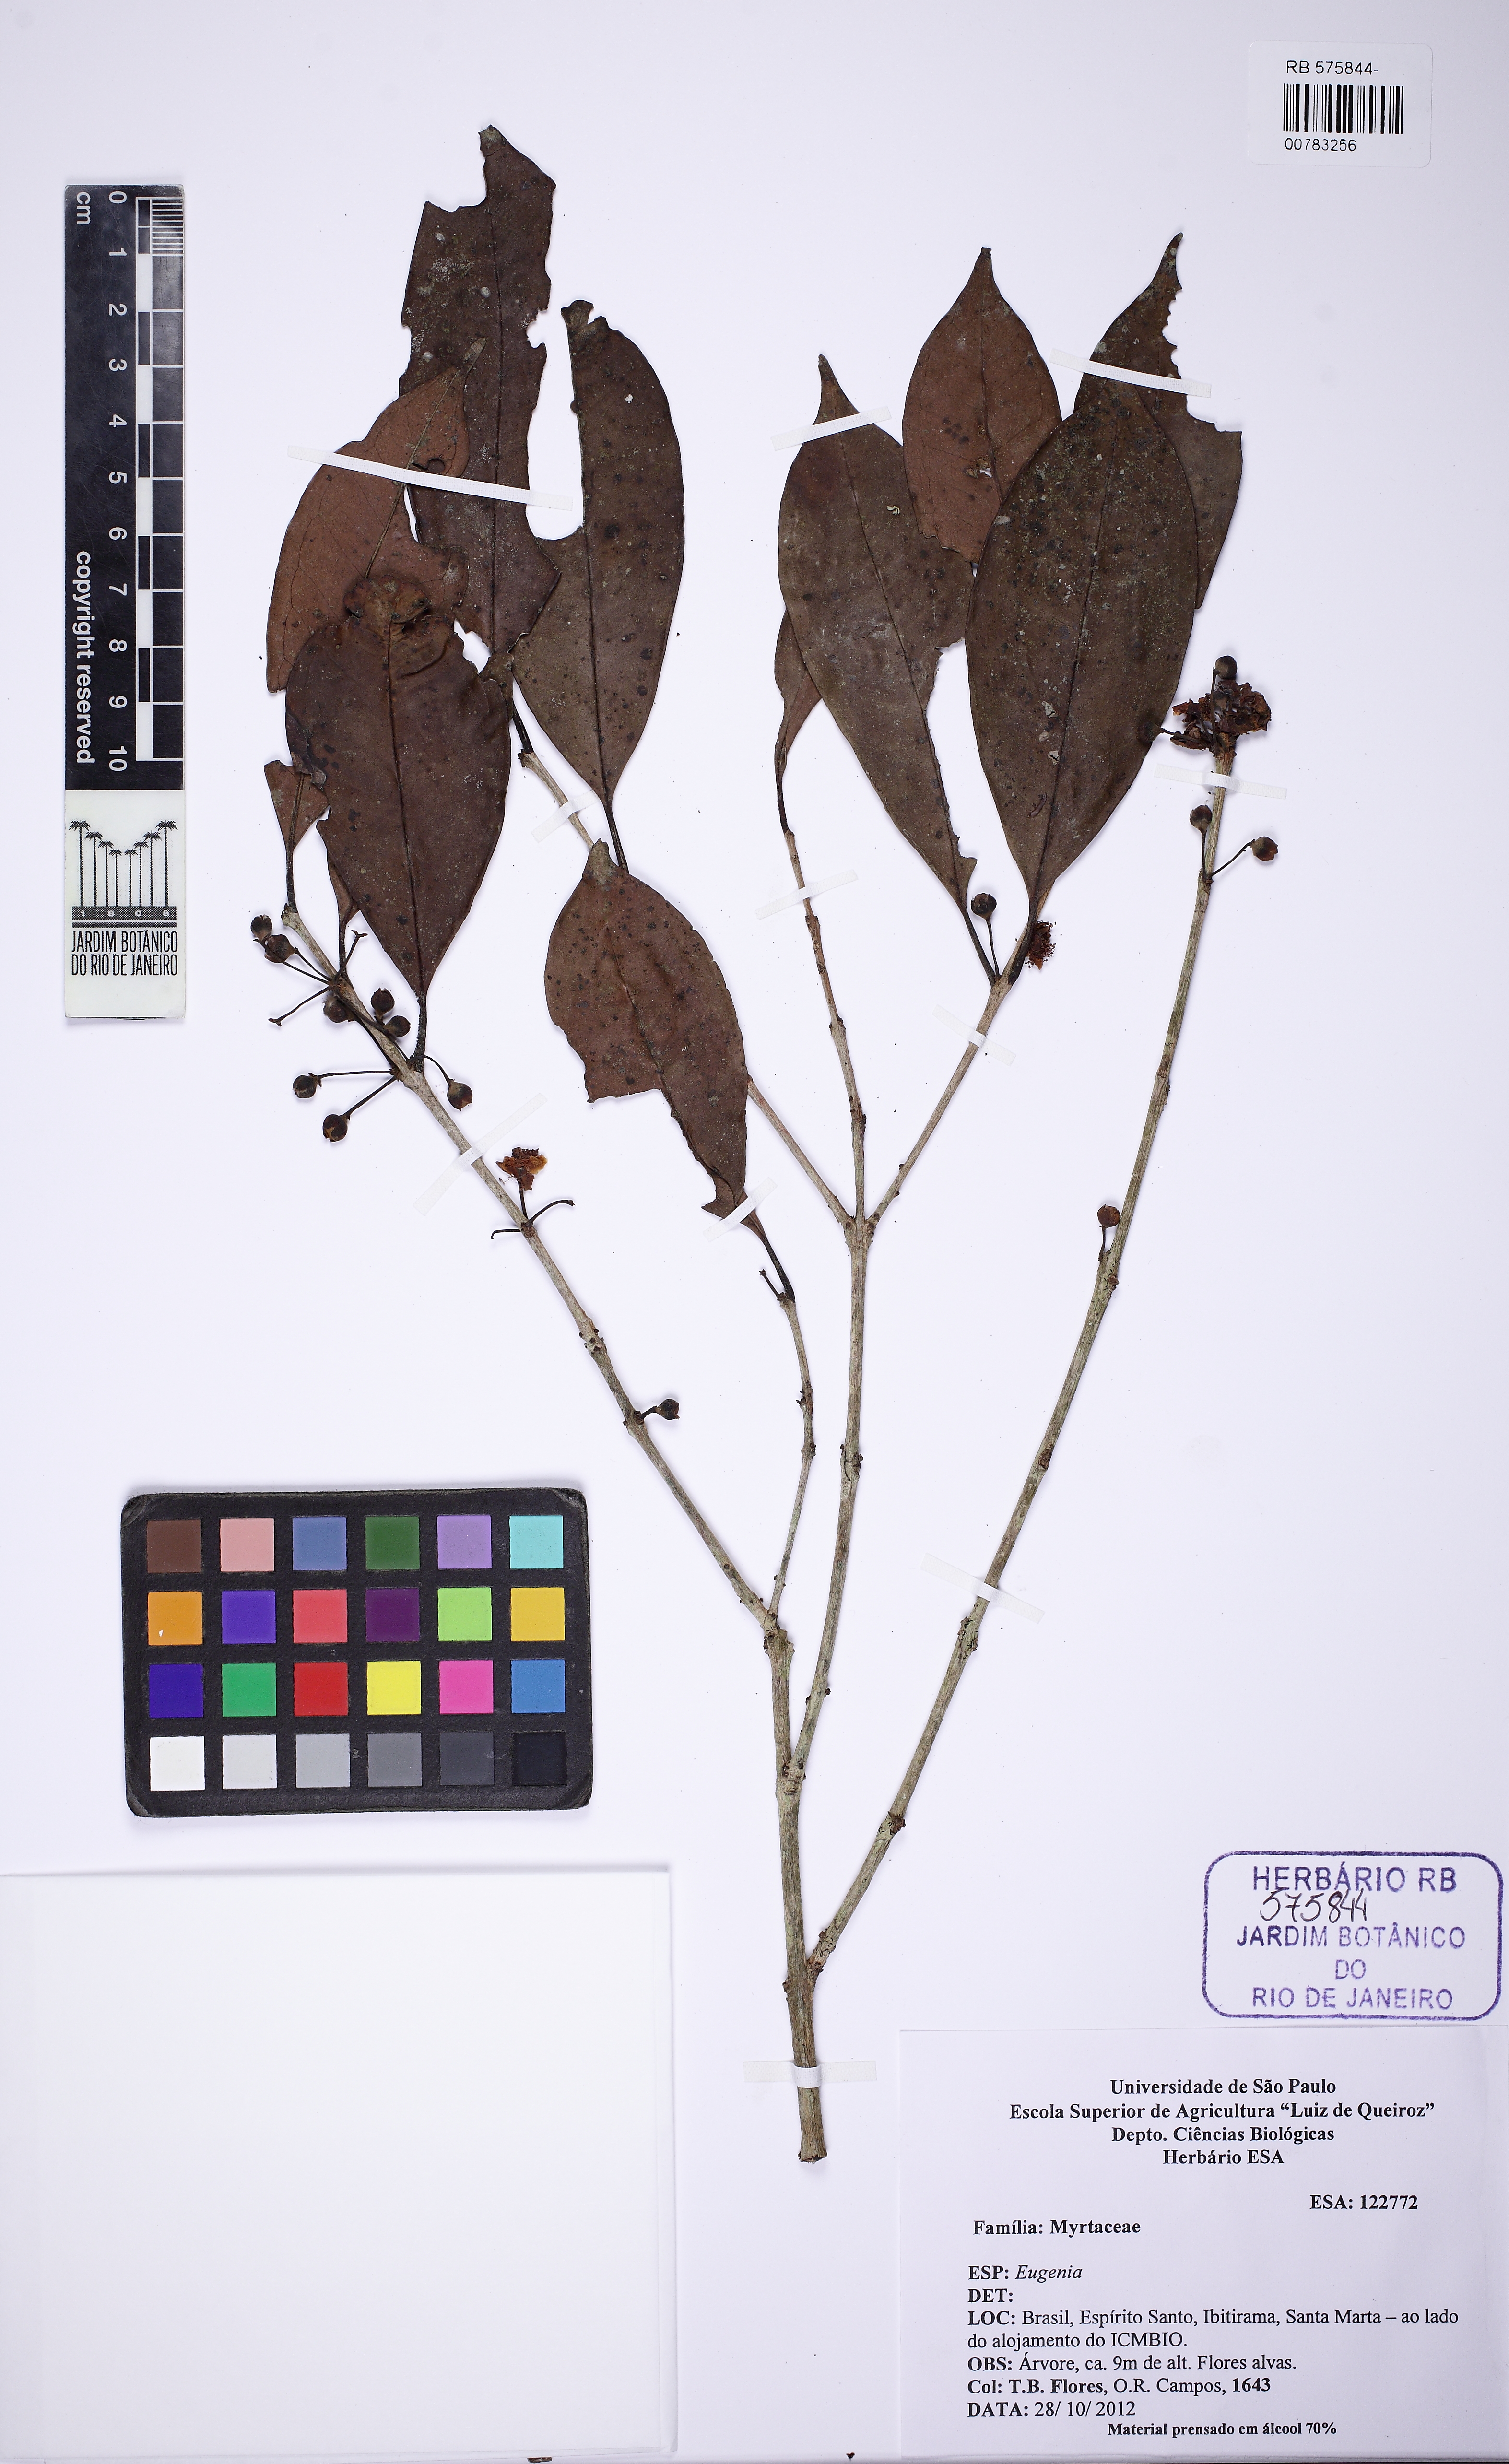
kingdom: Plantae
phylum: Tracheophyta
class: Magnoliopsida
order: Myrtales
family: Myrtaceae
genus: Eugenia
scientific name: Eugenia brevistyla
